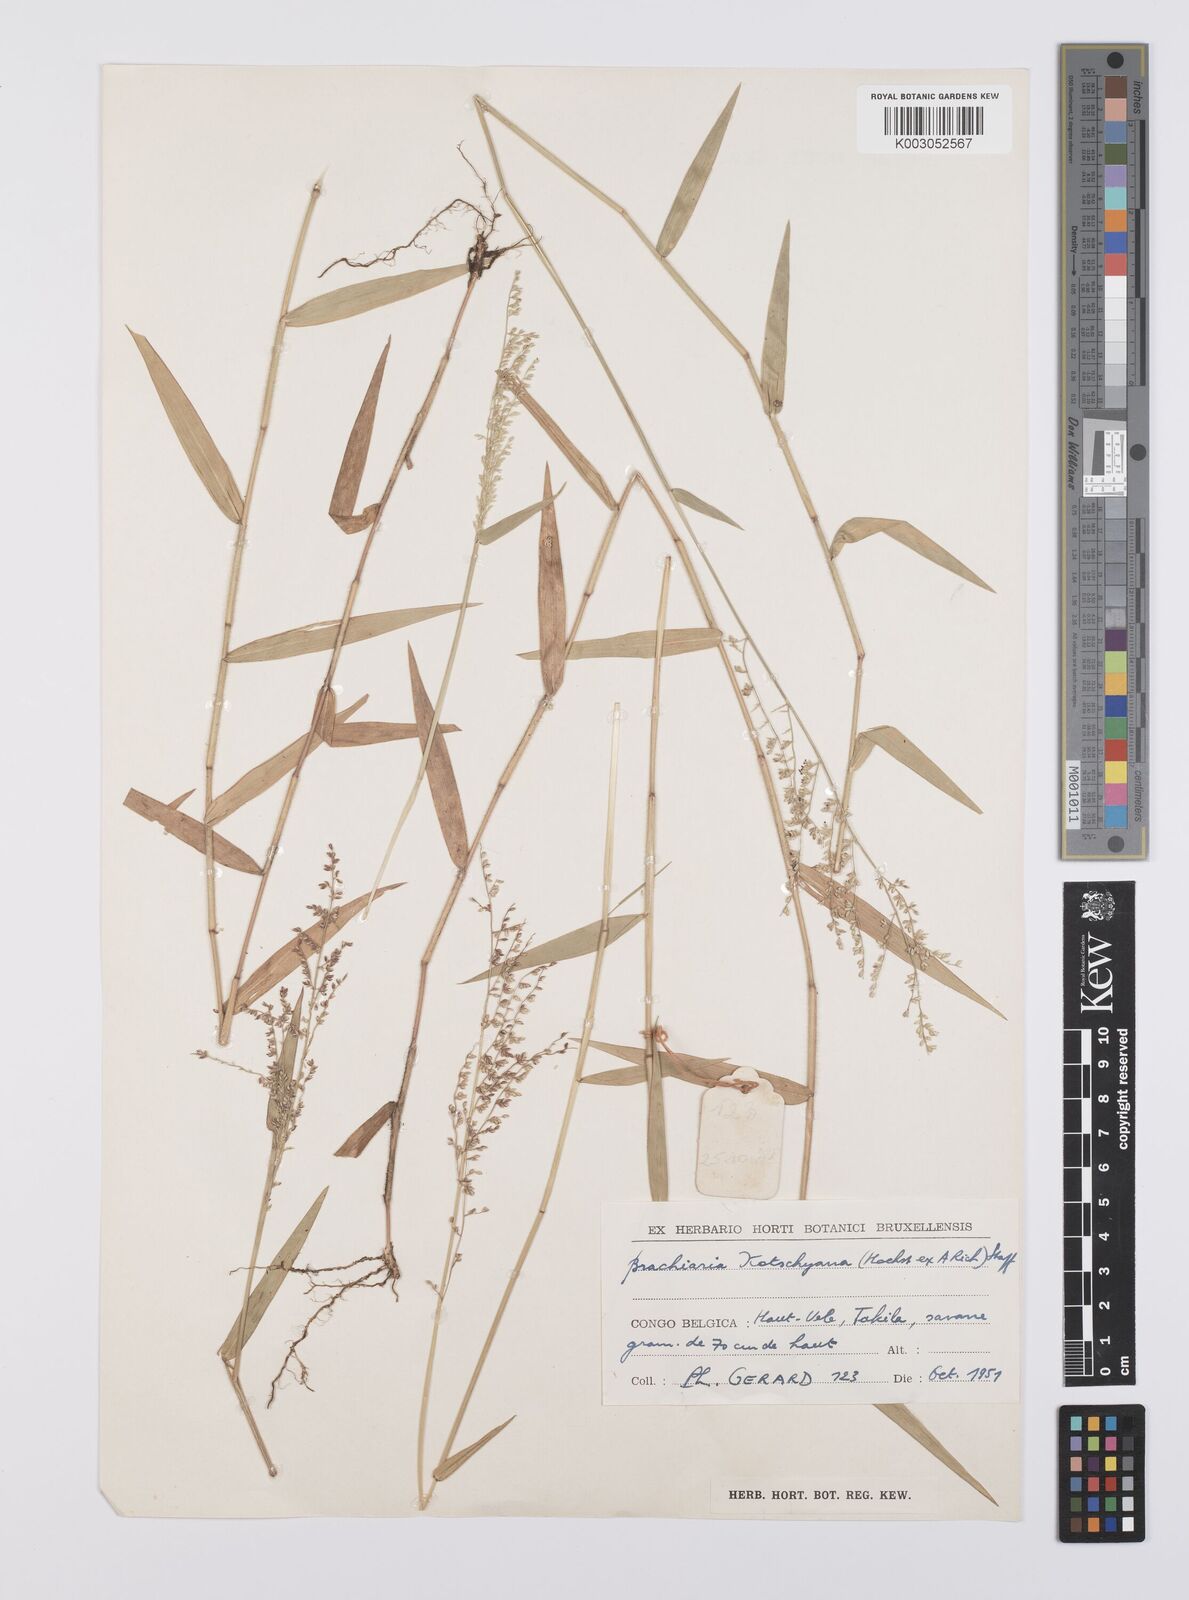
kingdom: Plantae
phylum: Tracheophyta
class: Liliopsida
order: Poales
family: Poaceae
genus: Urochloa
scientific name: Urochloa comata
